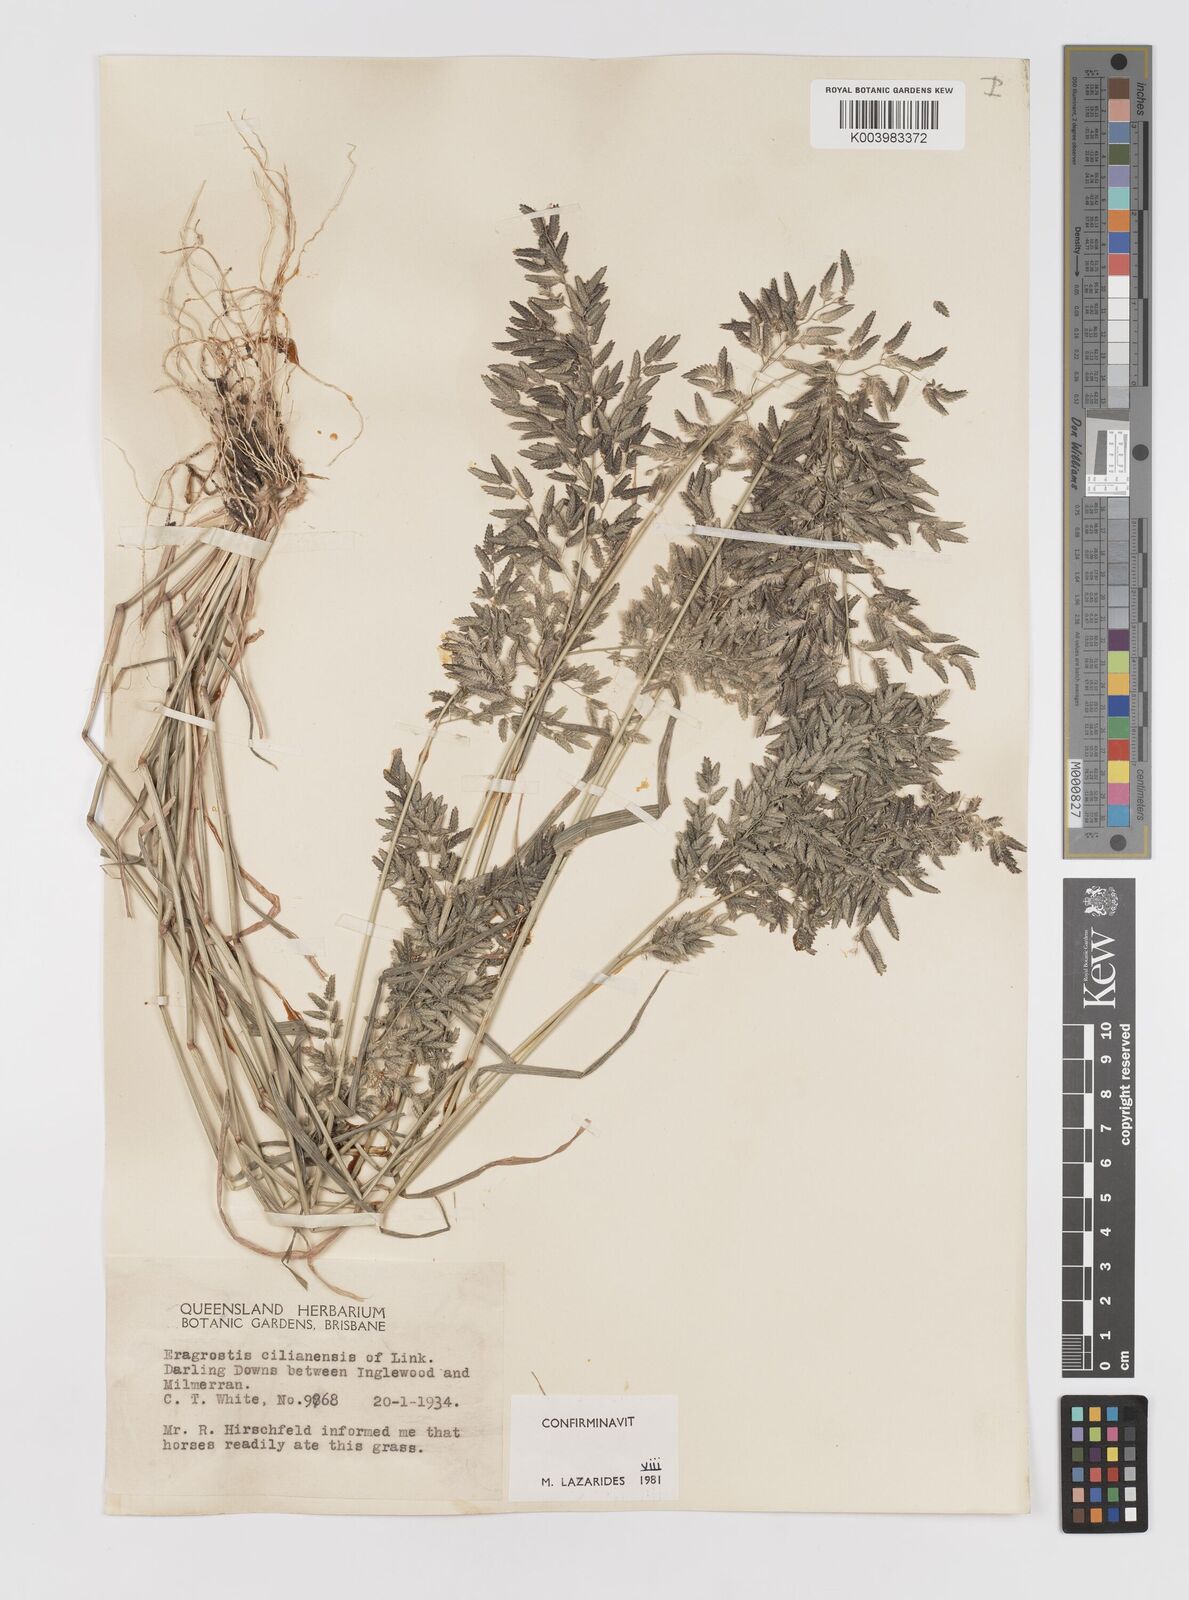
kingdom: Plantae
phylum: Tracheophyta
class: Liliopsida
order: Poales
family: Poaceae
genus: Eragrostis
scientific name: Eragrostis cilianensis
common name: Stinkgrass
